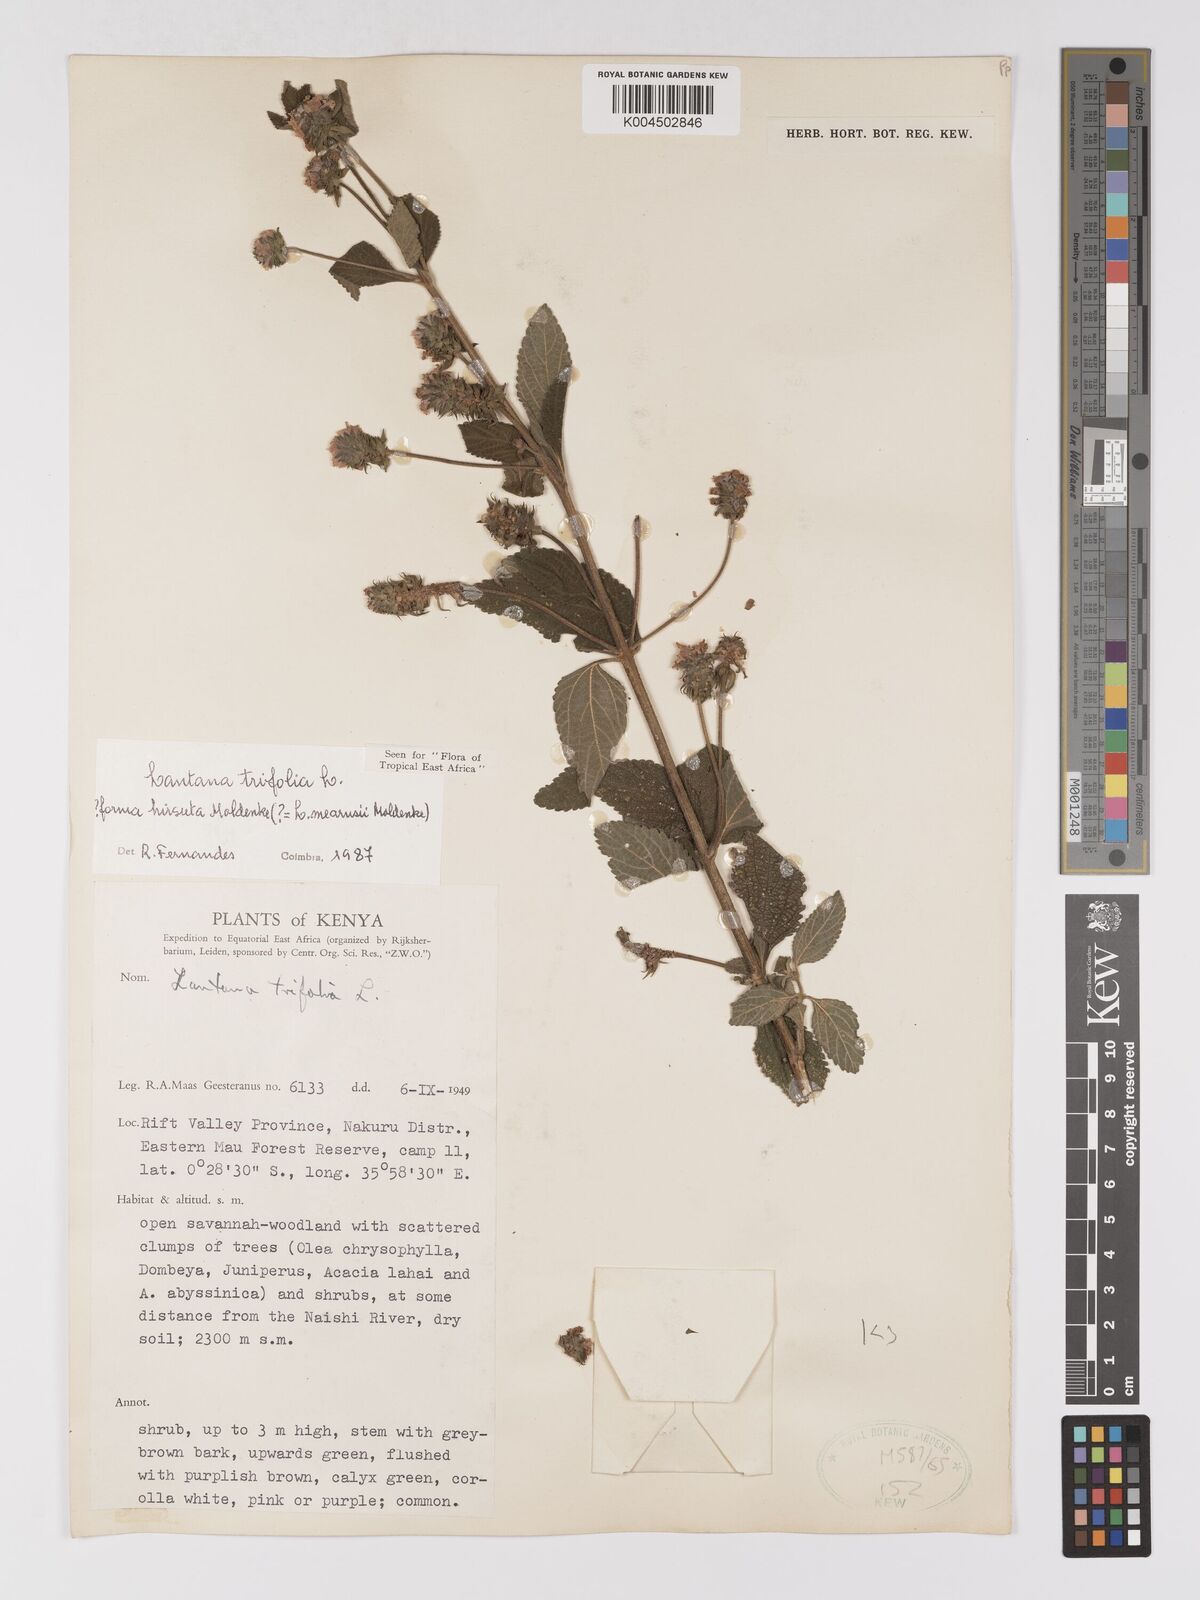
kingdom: Plantae
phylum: Tracheophyta
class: Magnoliopsida
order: Lamiales
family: Verbenaceae
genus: Lantana
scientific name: Lantana trifolia
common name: Sweet-sage
